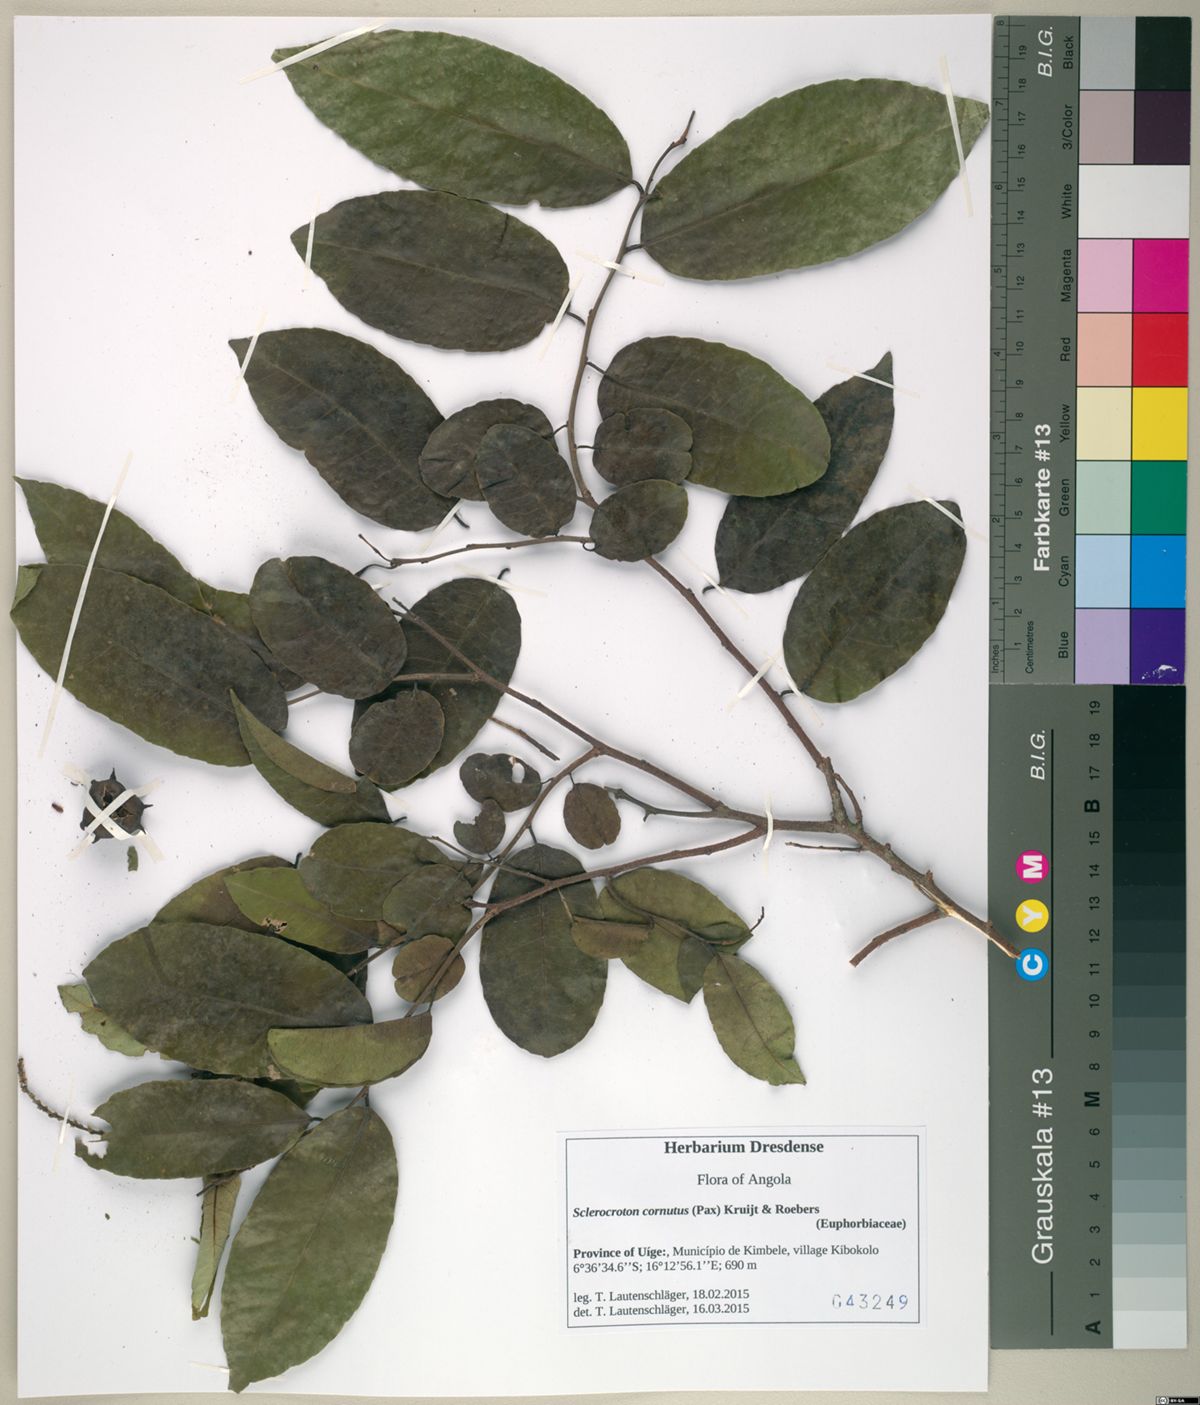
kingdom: Plantae
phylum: Tracheophyta
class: Magnoliopsida
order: Malpighiales
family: Euphorbiaceae
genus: Sclerocroton
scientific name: Sclerocroton cornutus
